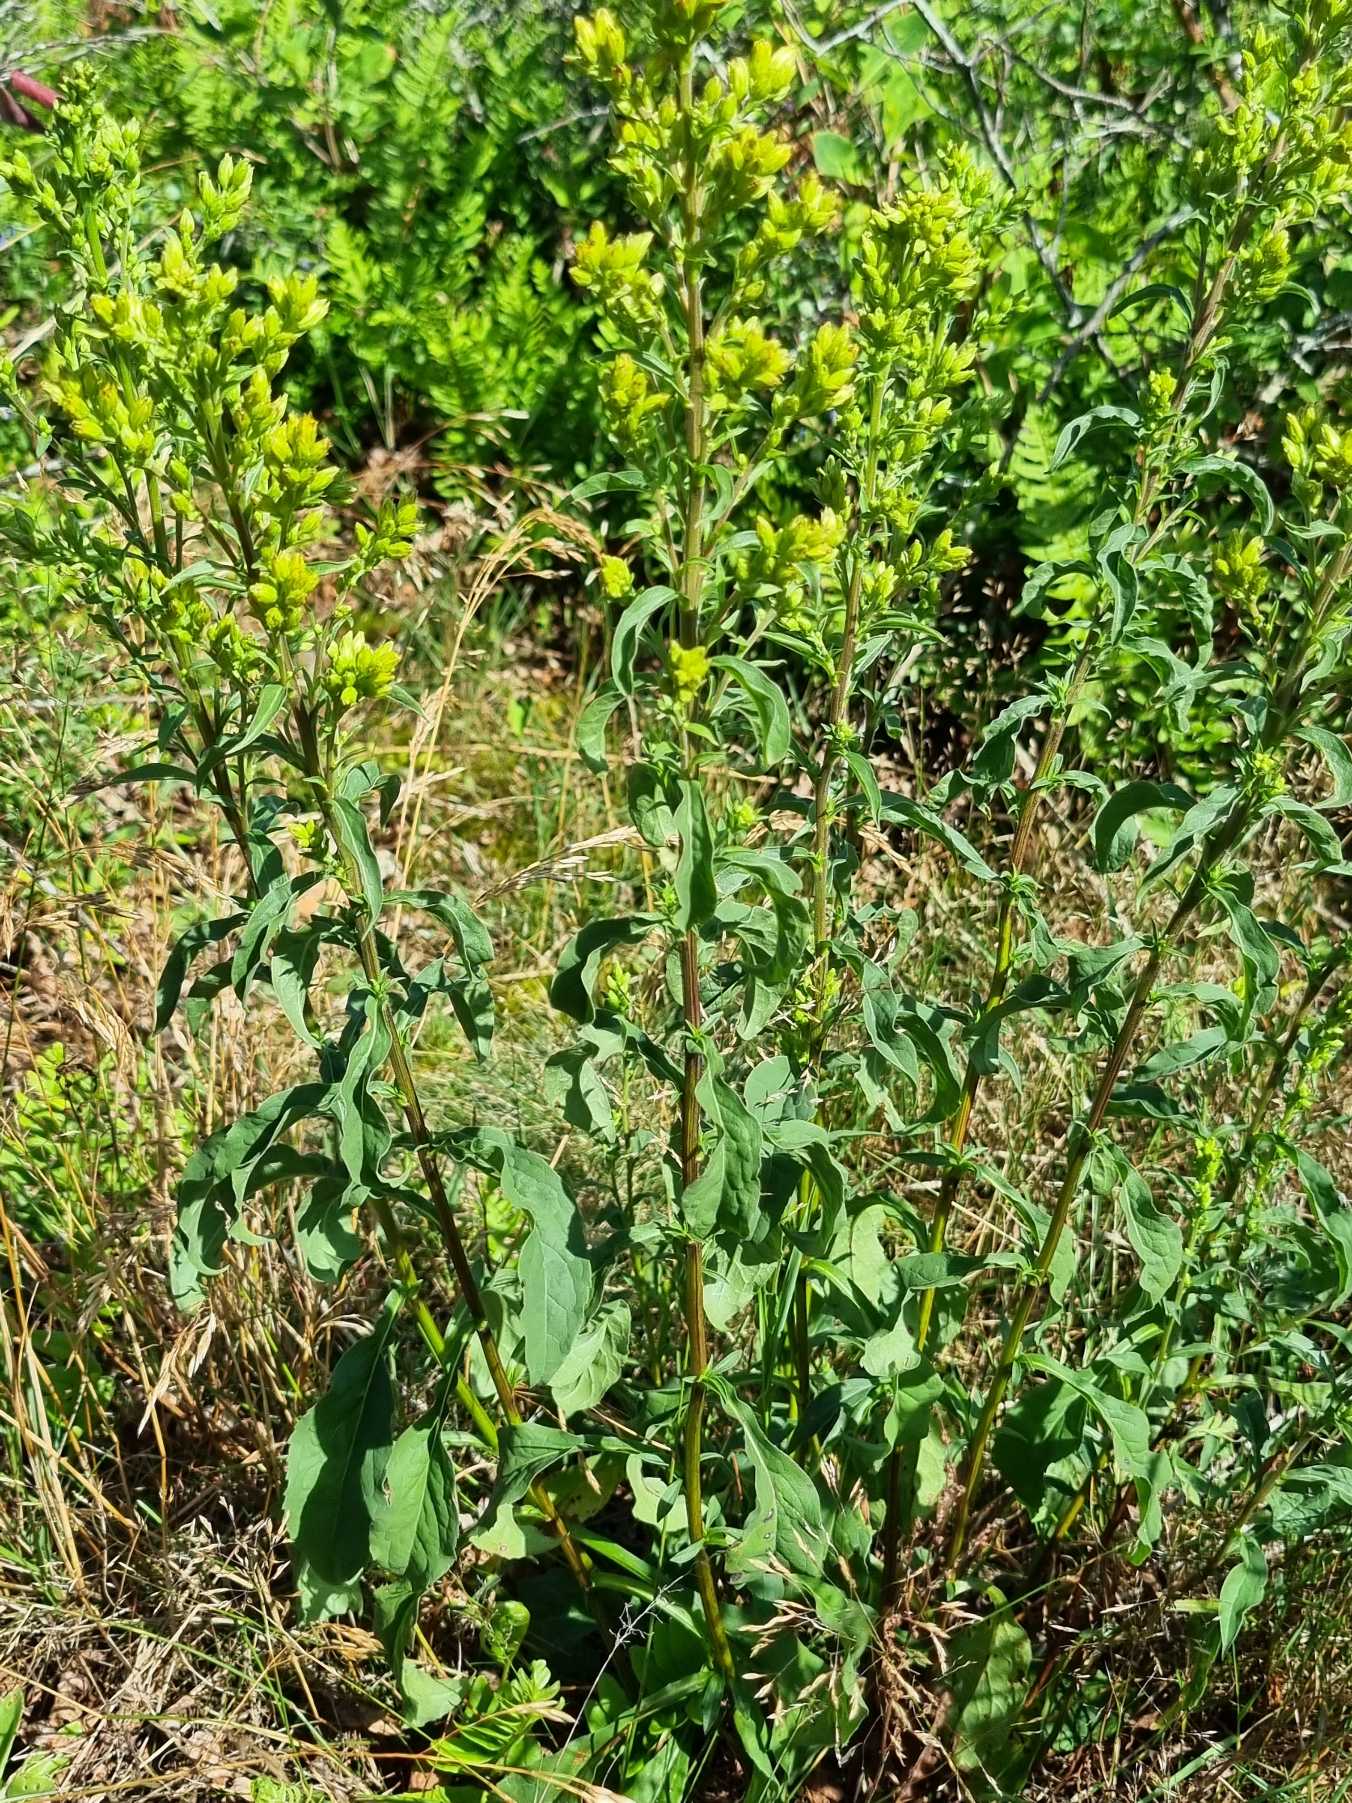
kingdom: Plantae
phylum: Tracheophyta
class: Magnoliopsida
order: Asterales
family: Asteraceae
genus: Solidago
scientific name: Solidago virgaurea
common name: Almindelig gyldenris
